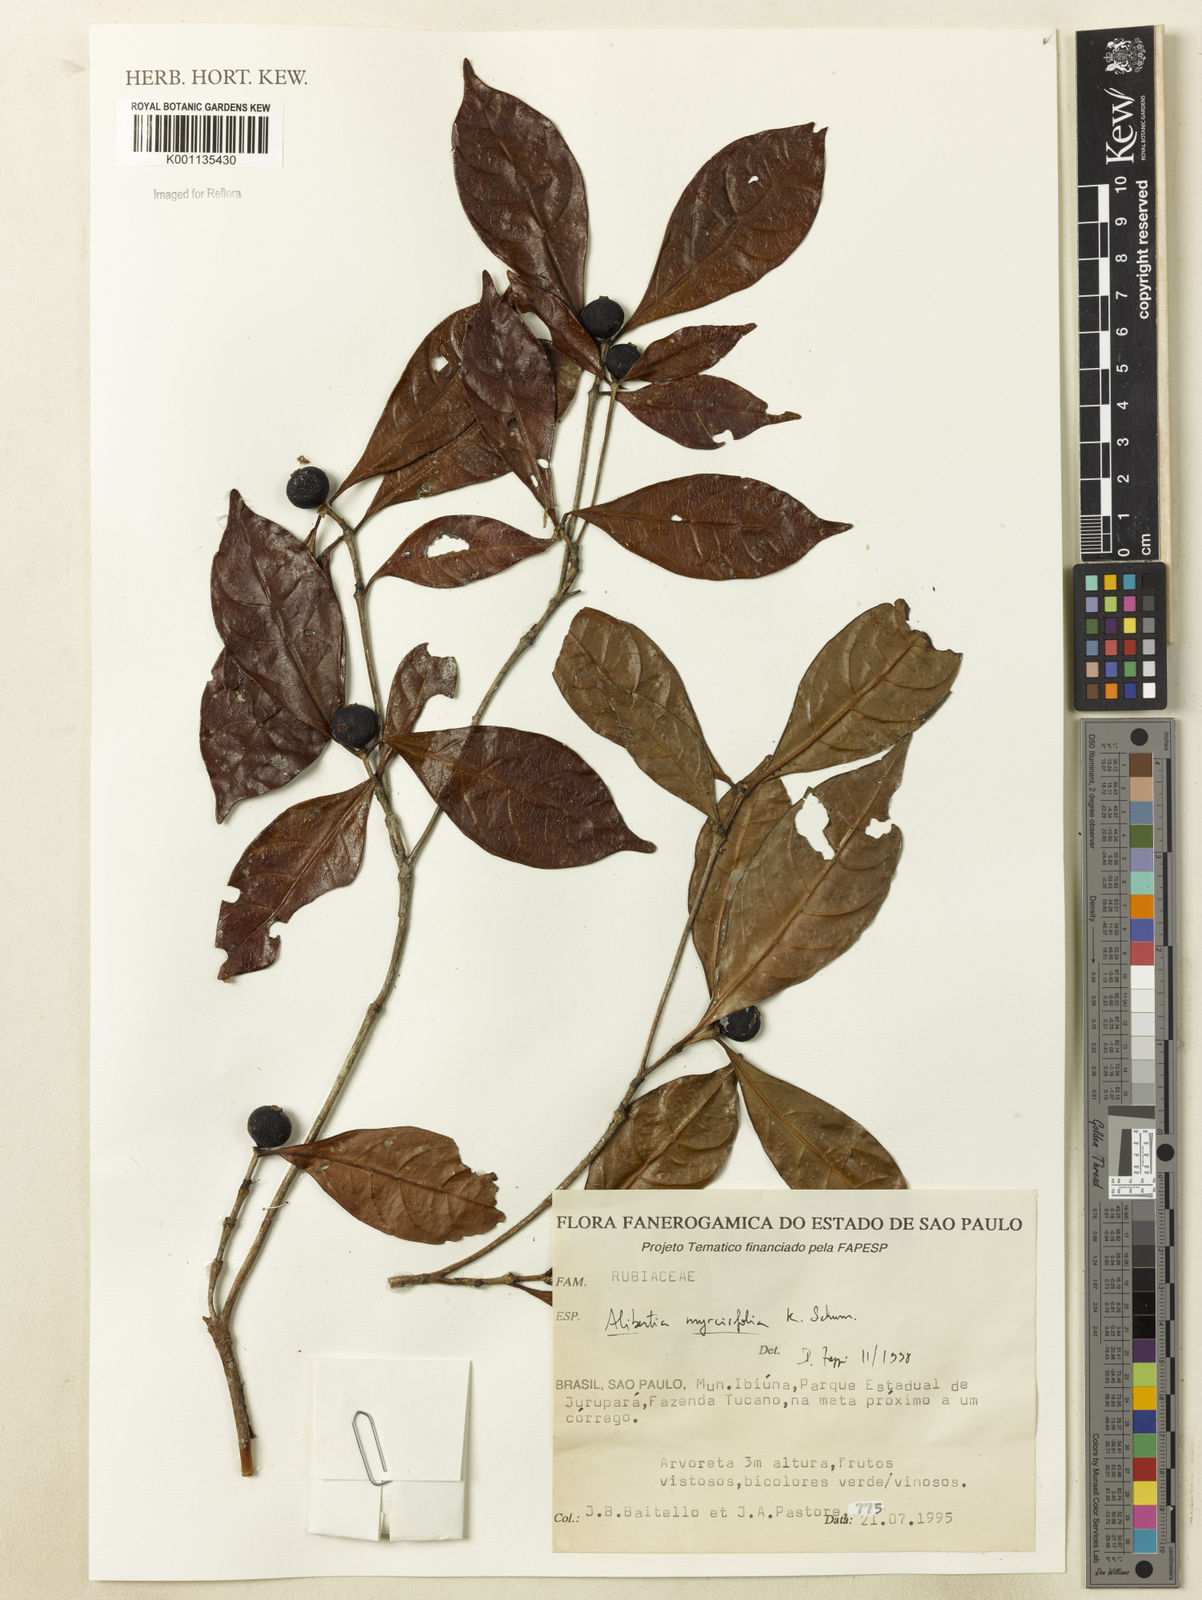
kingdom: Plantae
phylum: Tracheophyta
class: Magnoliopsida
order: Gentianales
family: Rubiaceae
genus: Cordiera
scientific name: Cordiera myrciifolia
